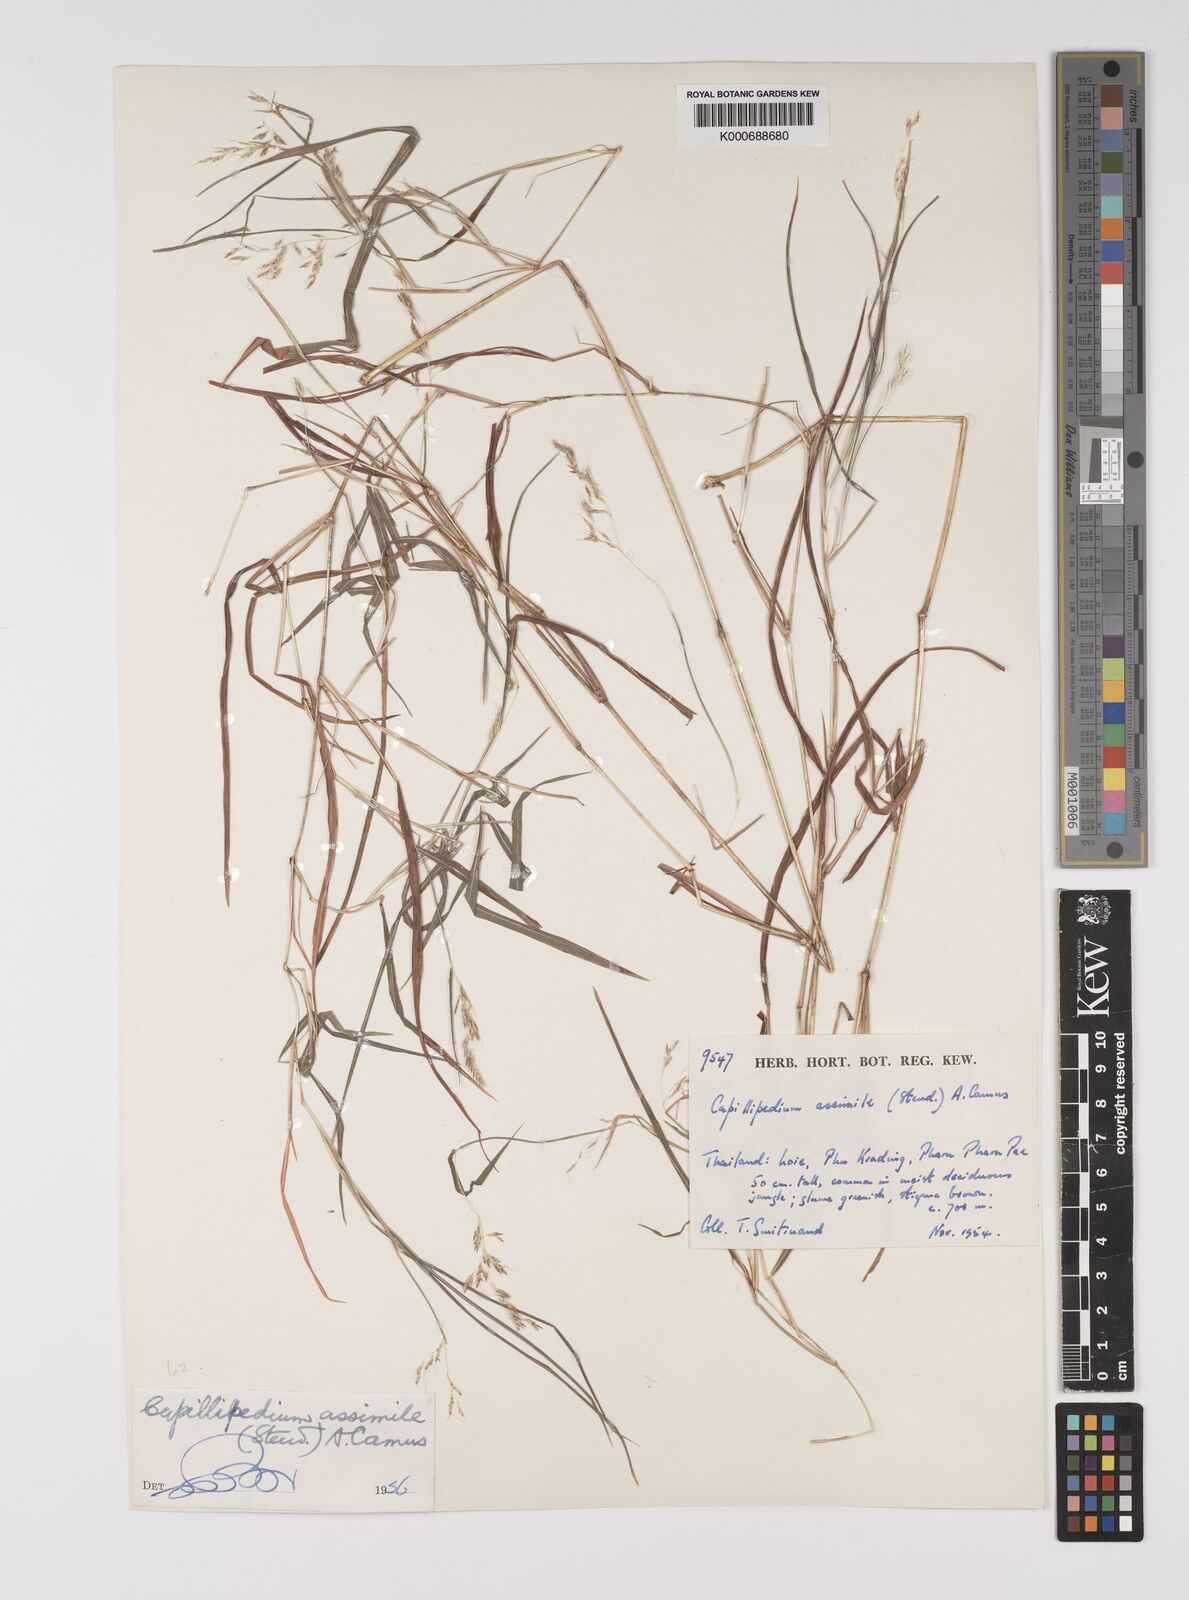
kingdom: Plantae
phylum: Tracheophyta
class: Liliopsida
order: Poales
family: Poaceae
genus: Capillipedium
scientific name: Capillipedium assimile
